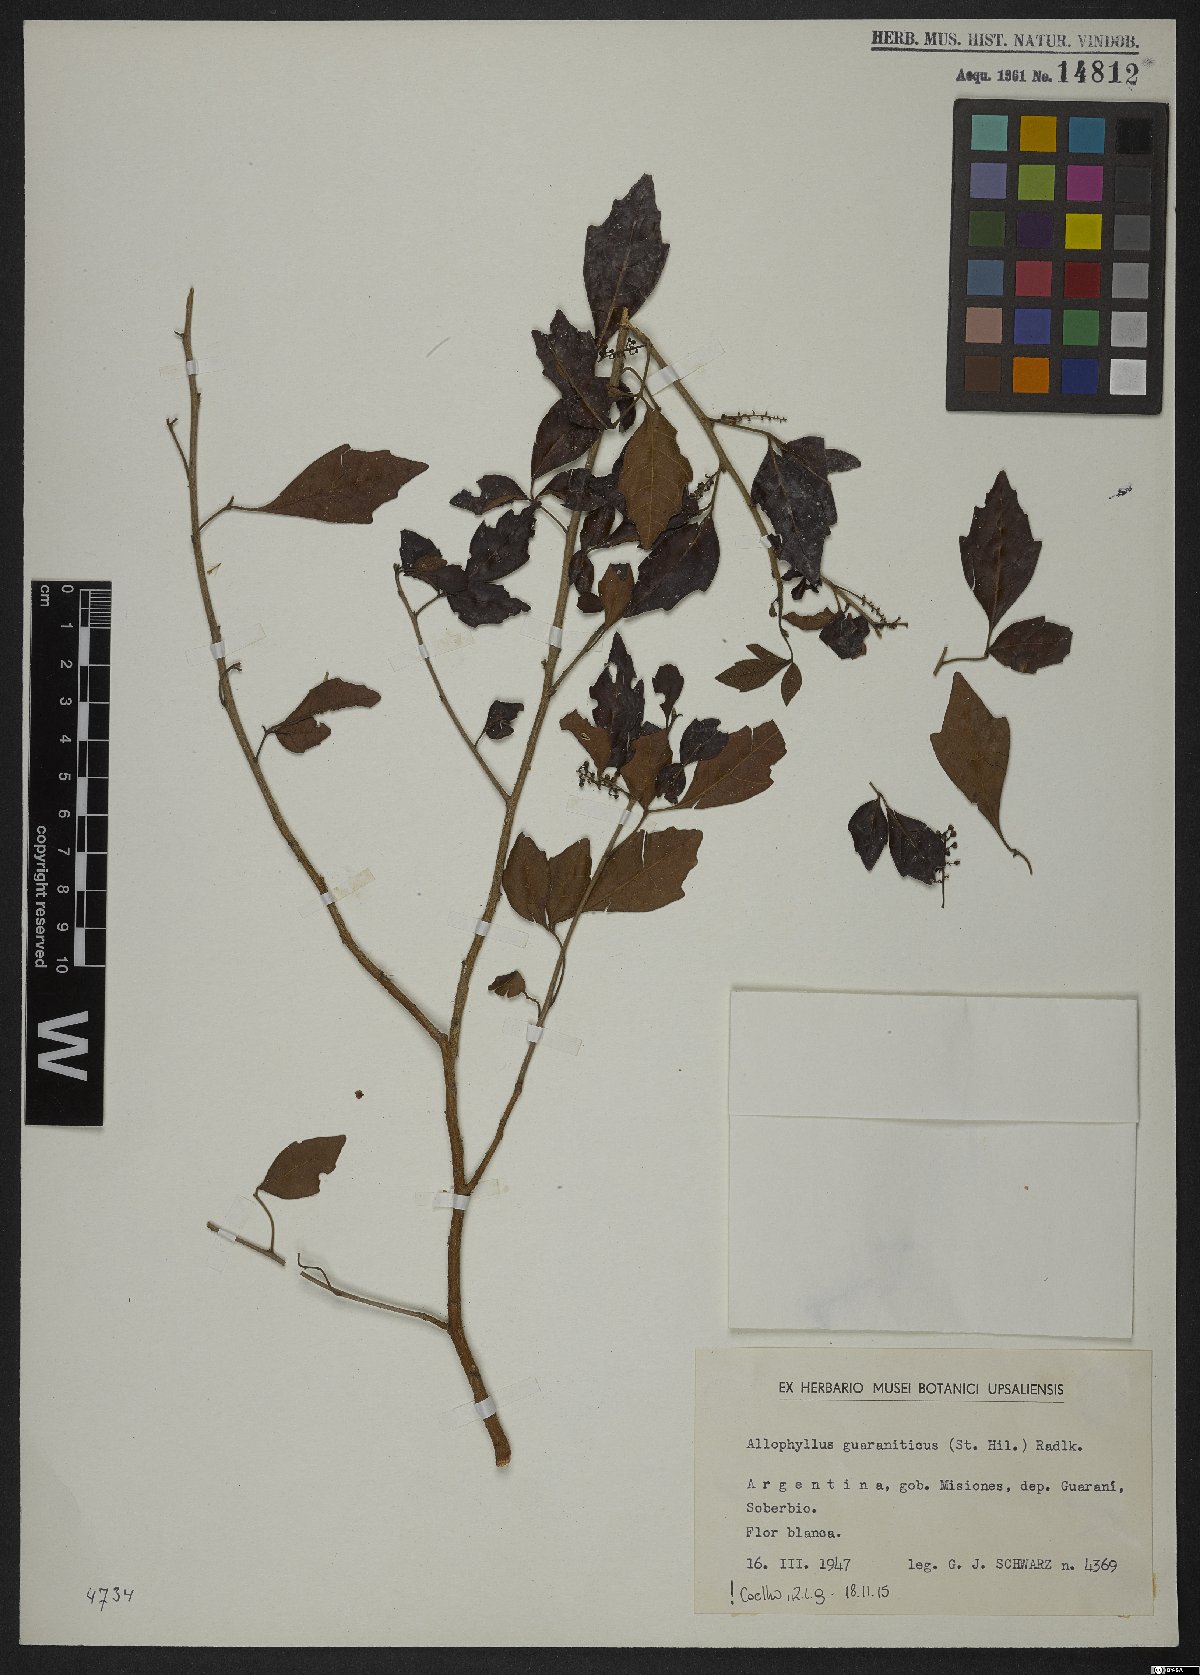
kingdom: Plantae
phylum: Tracheophyta
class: Magnoliopsida
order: Sapindales
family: Sapindaceae
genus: Allophylus
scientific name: Allophylus guaraniticus
